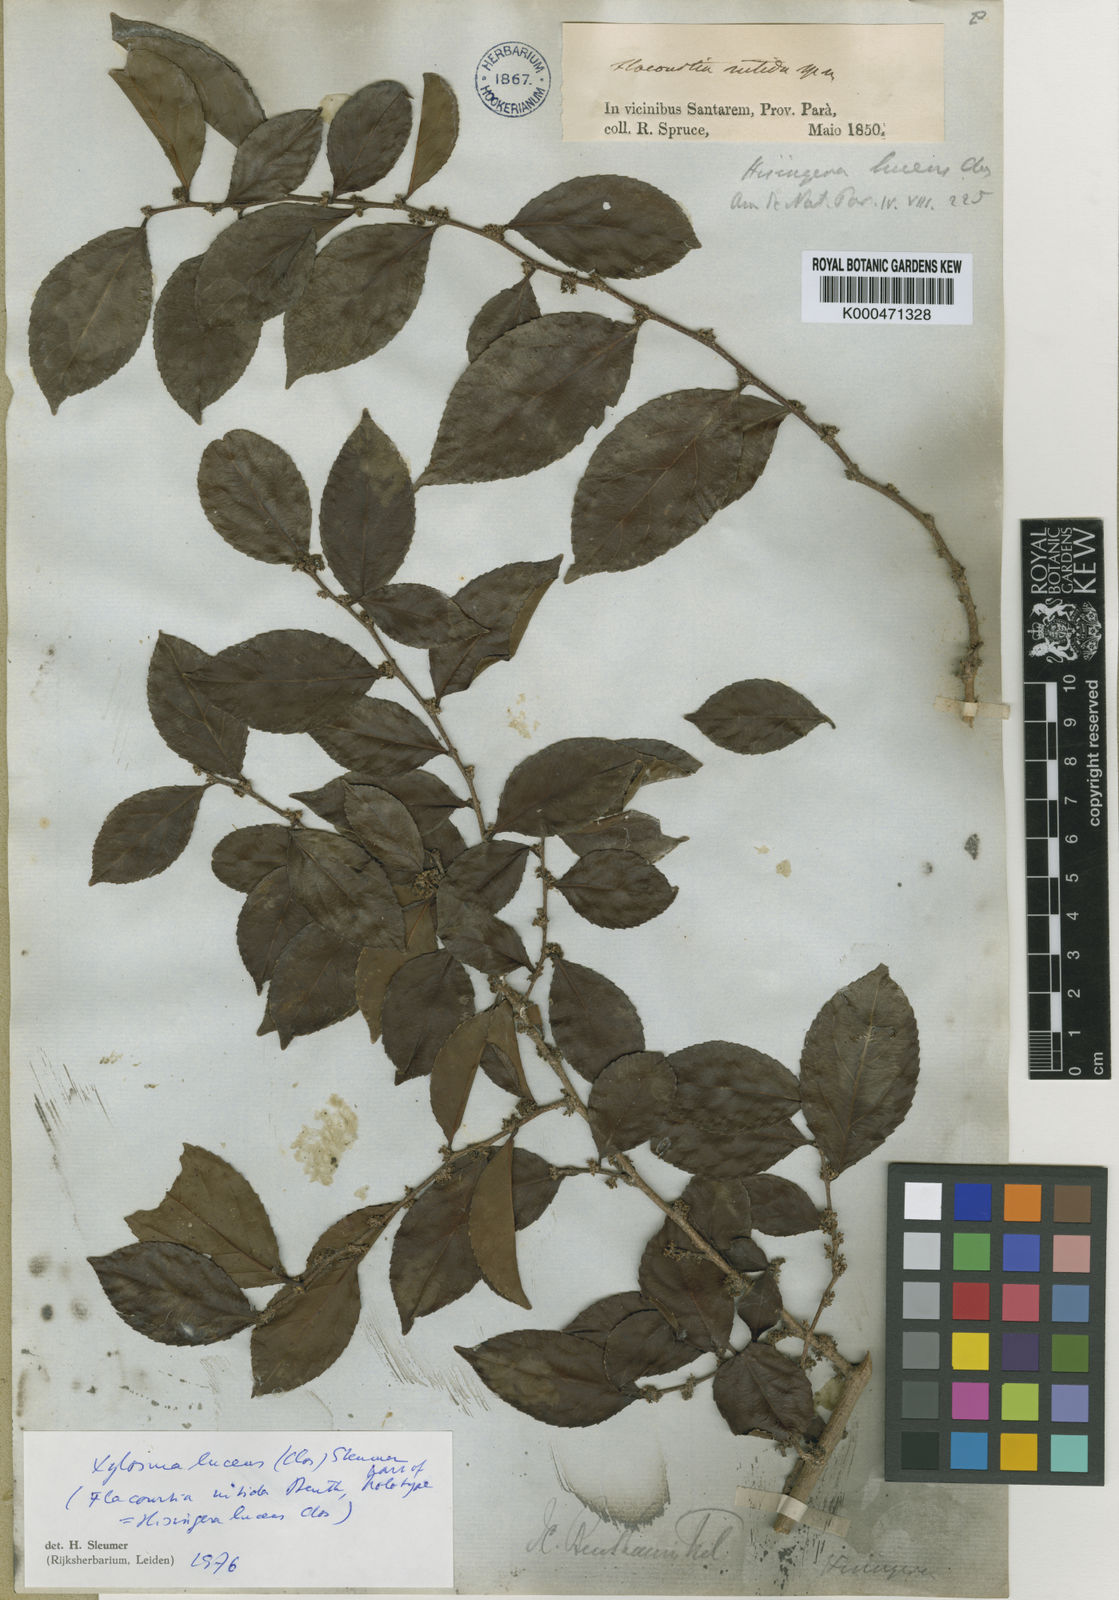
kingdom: Plantae
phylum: Tracheophyta
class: Magnoliopsida
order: Malpighiales
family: Salicaceae
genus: Xylosma
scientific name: Xylosma benthamii
